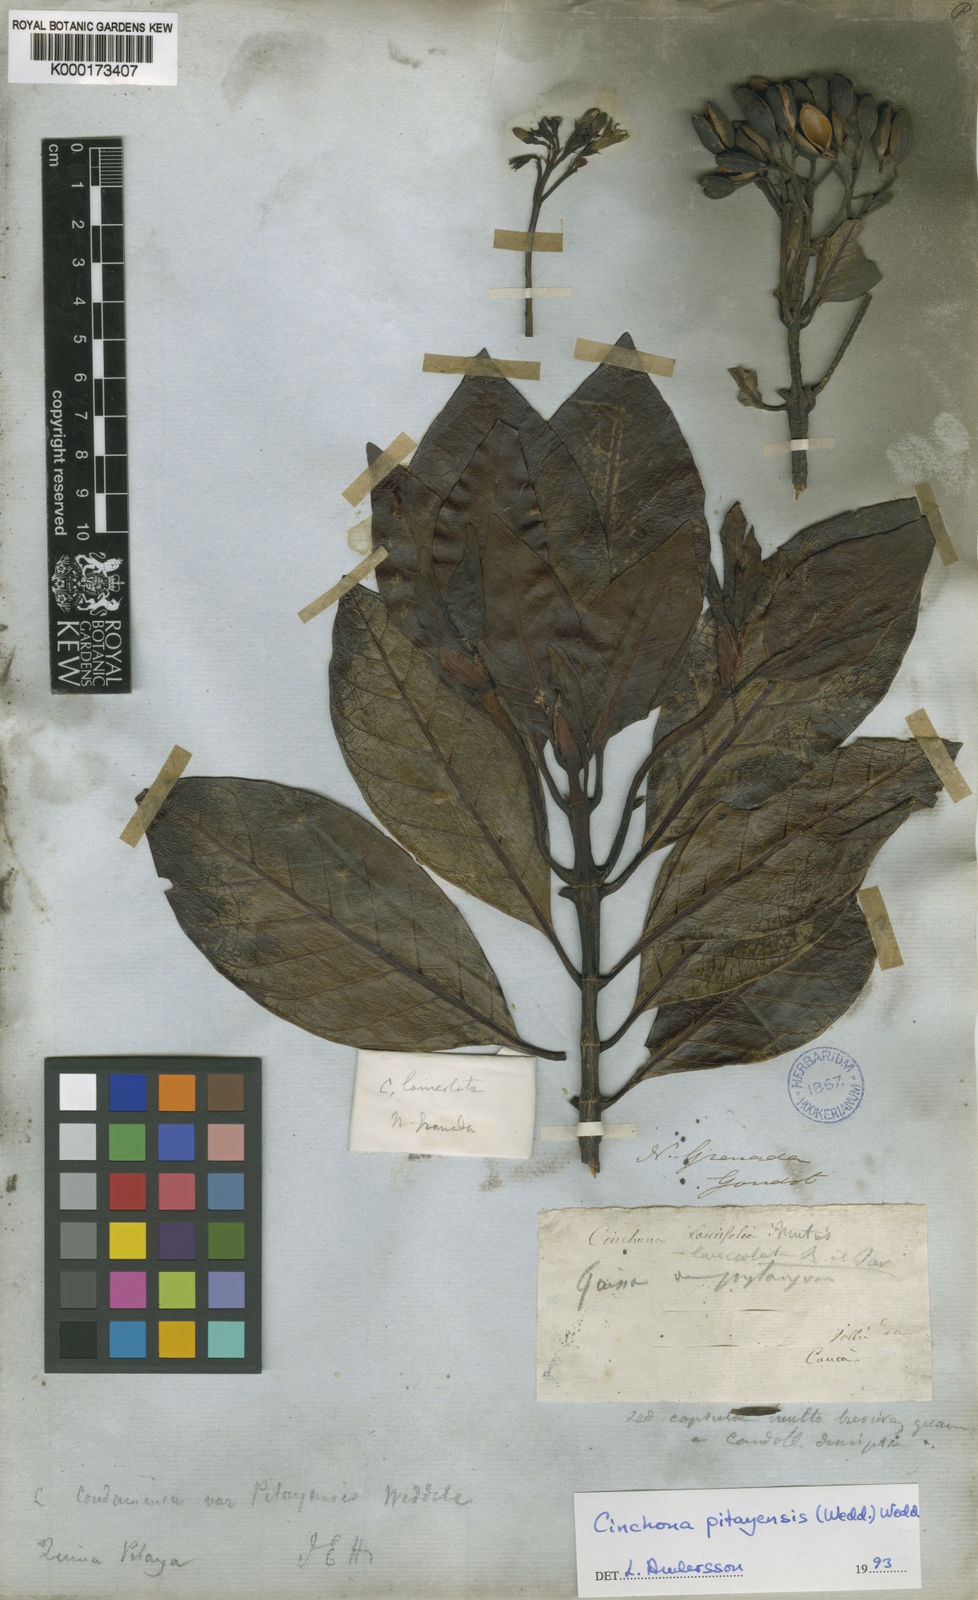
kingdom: Plantae
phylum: Tracheophyta
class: Magnoliopsida
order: Gentianales
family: Rubiaceae
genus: Cinchona
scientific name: Cinchona pitayensis
